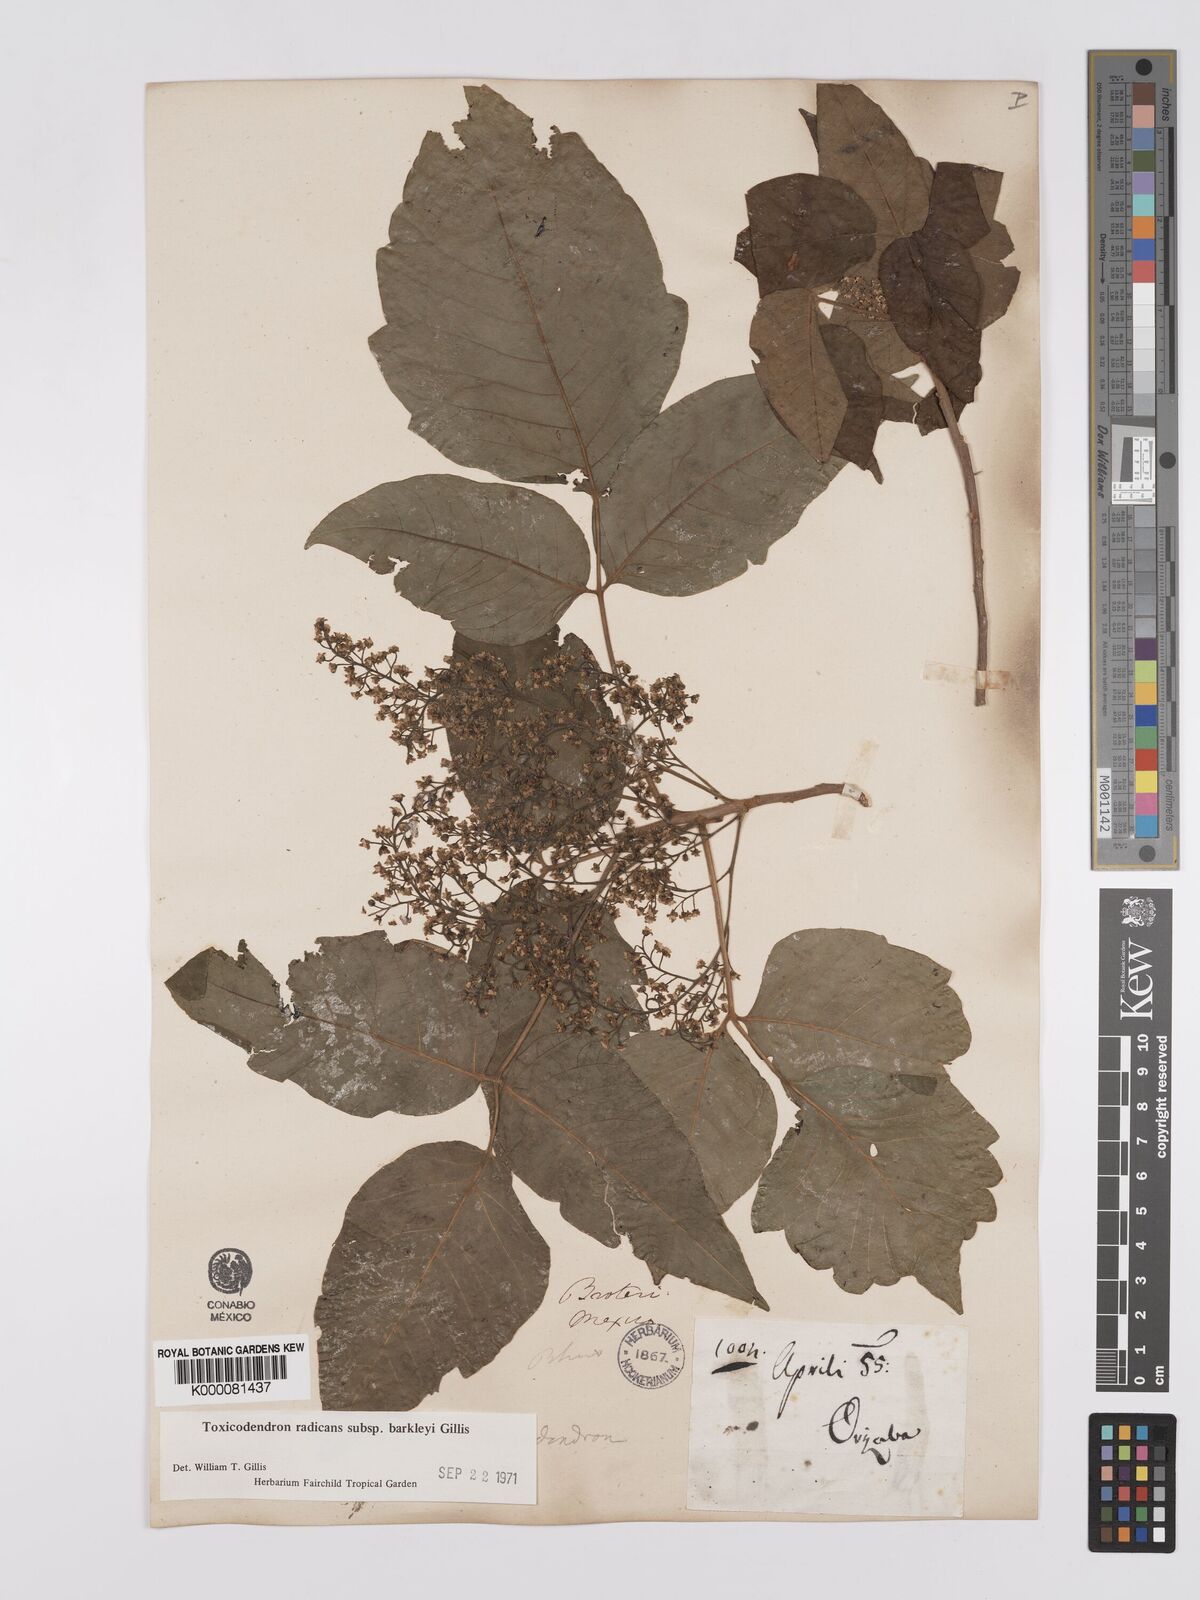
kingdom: Plantae
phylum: Tracheophyta
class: Magnoliopsida
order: Sapindales
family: Anacardiaceae
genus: Toxicodendron
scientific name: Toxicodendron radicans
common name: Poison ivy
